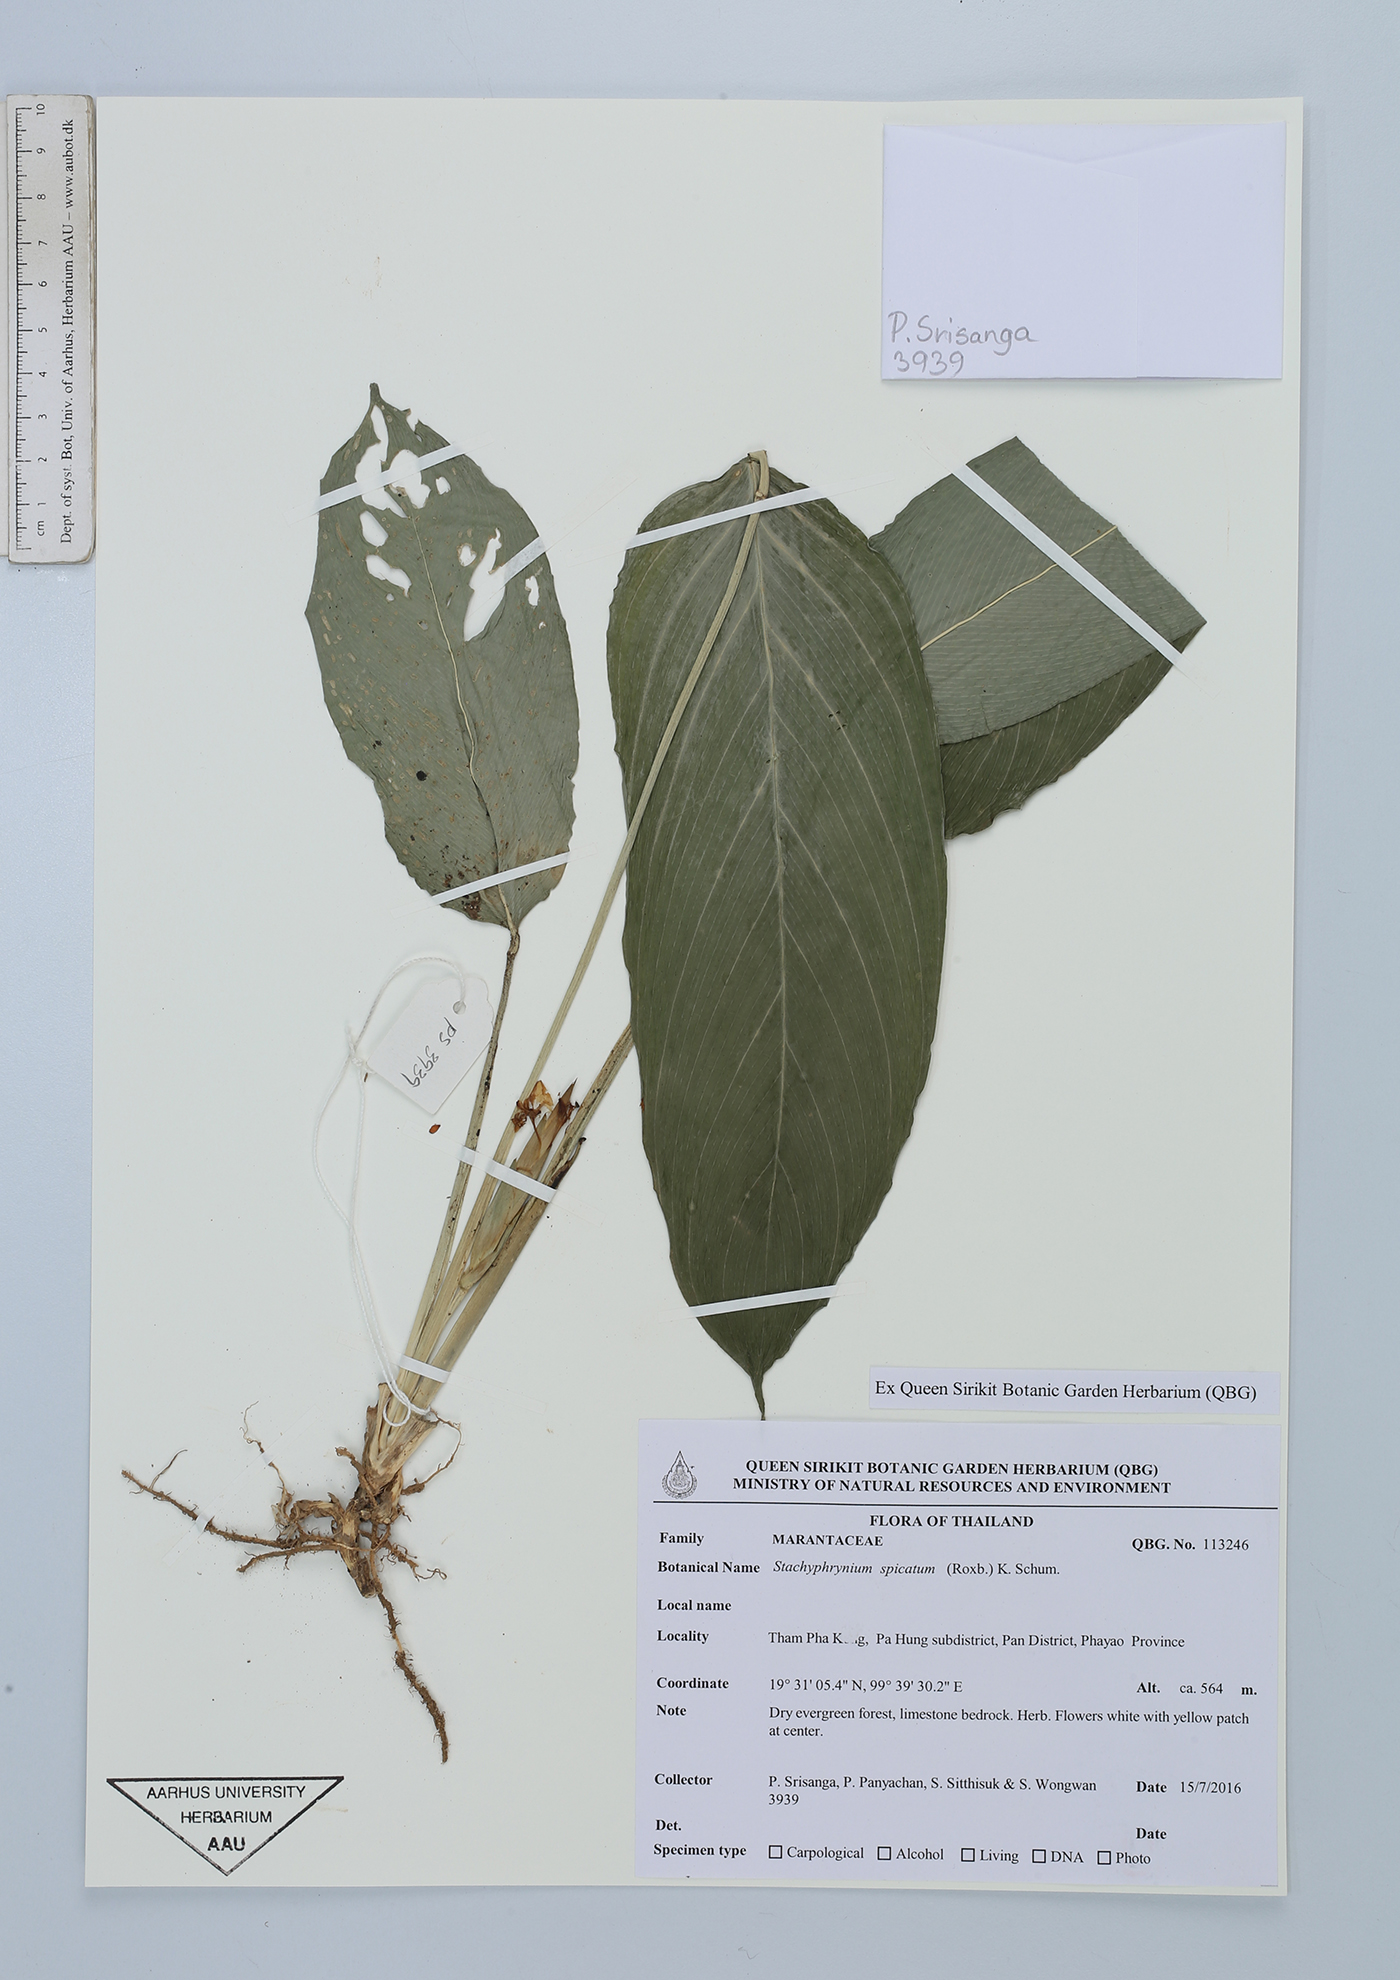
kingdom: Plantae
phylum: Tracheophyta
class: Liliopsida
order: Zingiberales
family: Marantaceae
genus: Stachyphrynium
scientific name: Stachyphrynium spicatum
